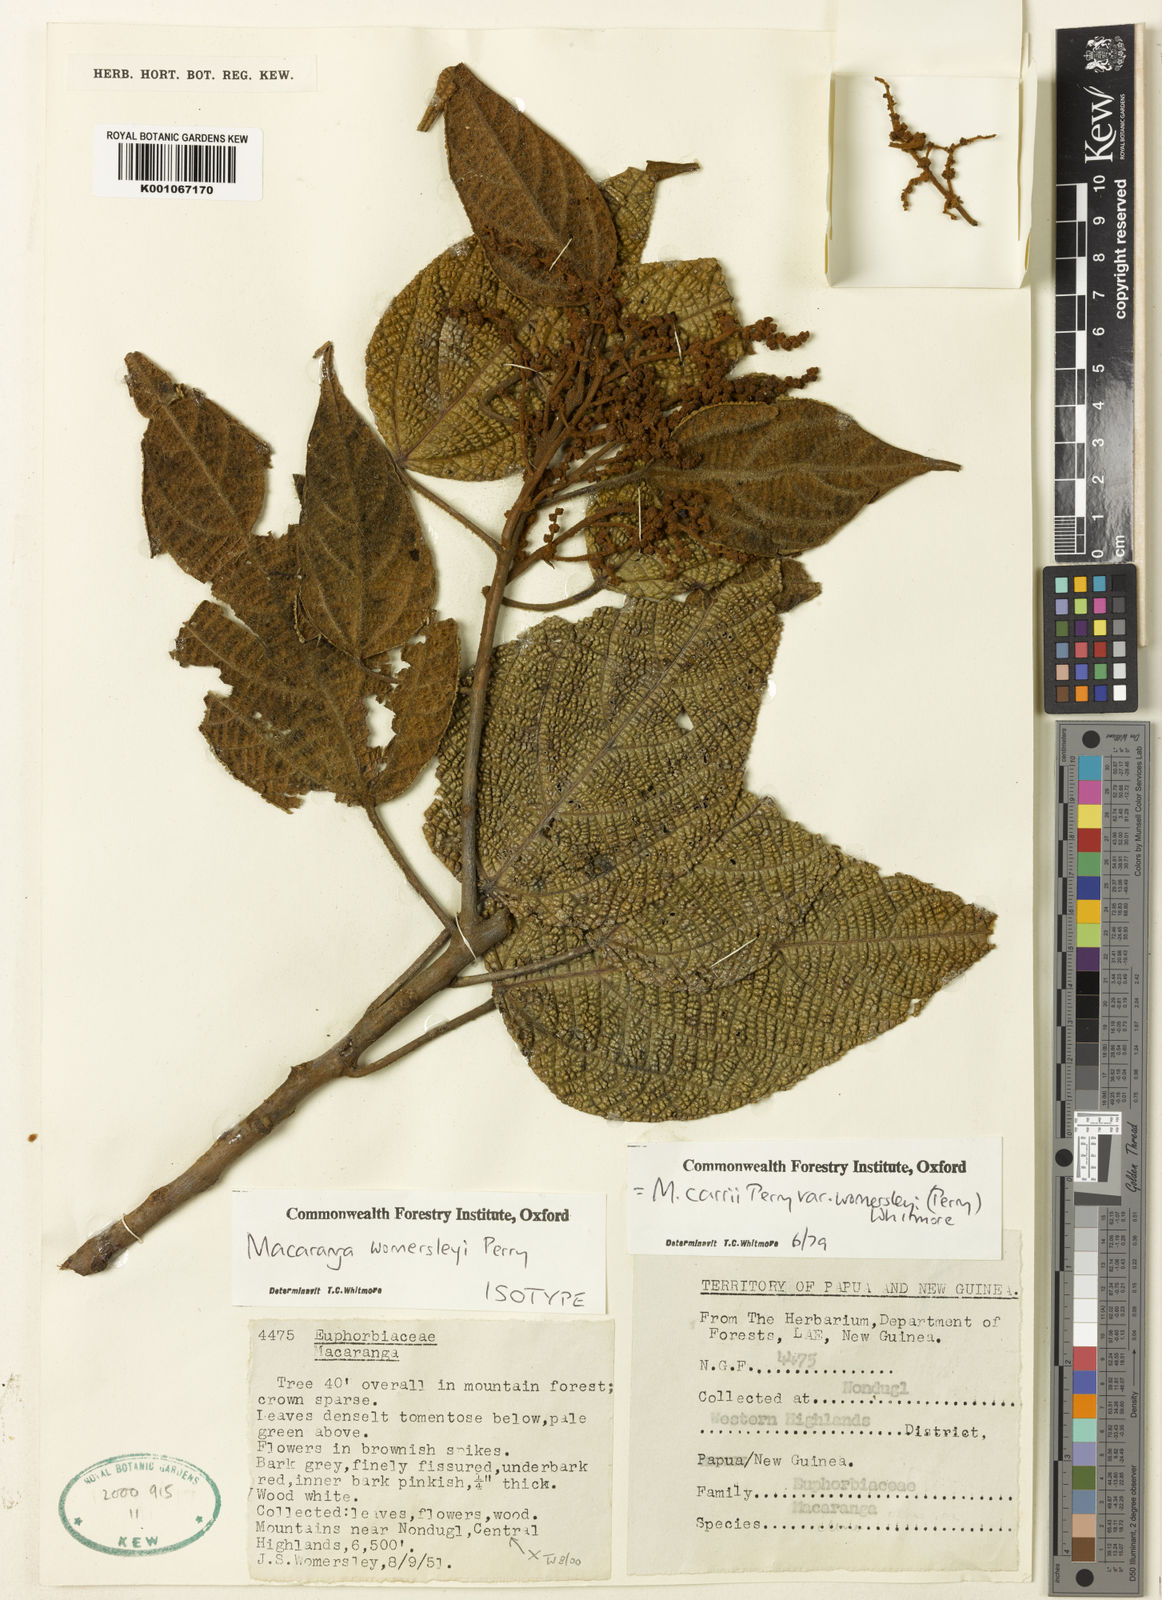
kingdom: Plantae
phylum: Tracheophyta
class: Magnoliopsida
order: Malpighiales
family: Euphorbiaceae
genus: Macaranga
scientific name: Macaranga carrii
